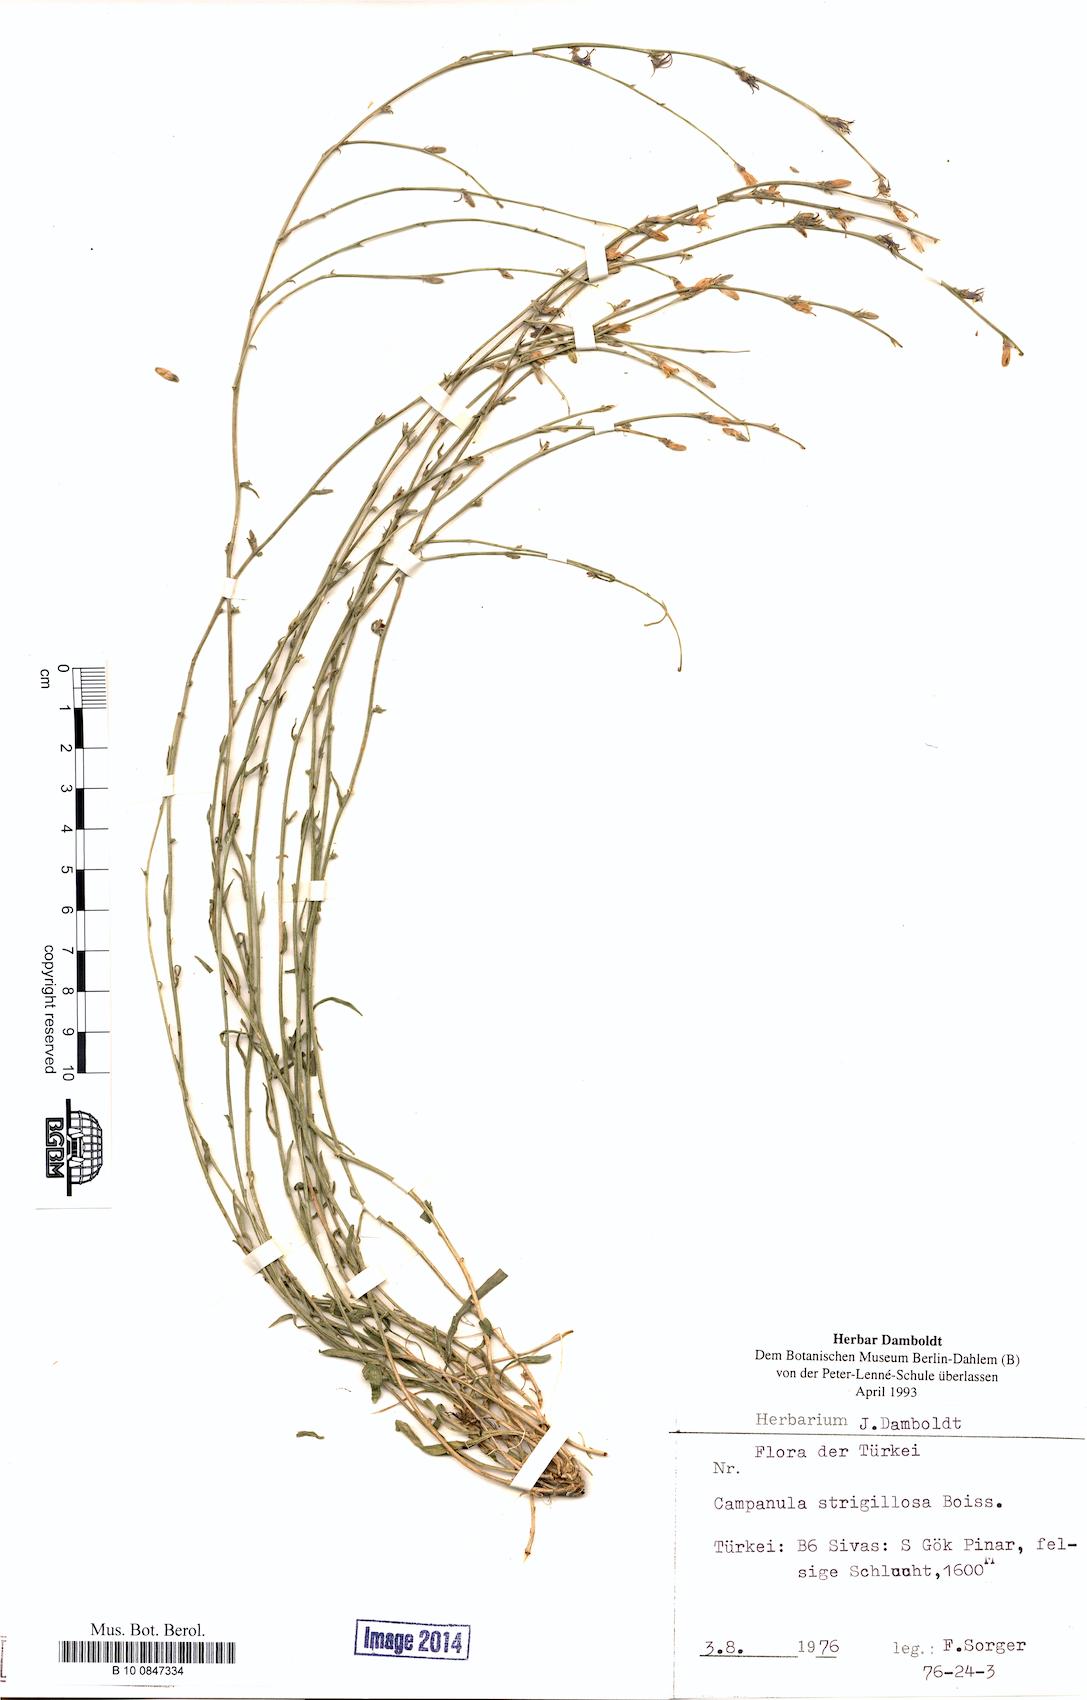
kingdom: Plantae
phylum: Tracheophyta
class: Magnoliopsida
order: Asterales
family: Campanulaceae
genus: Campanula
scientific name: Campanula strigillosa
